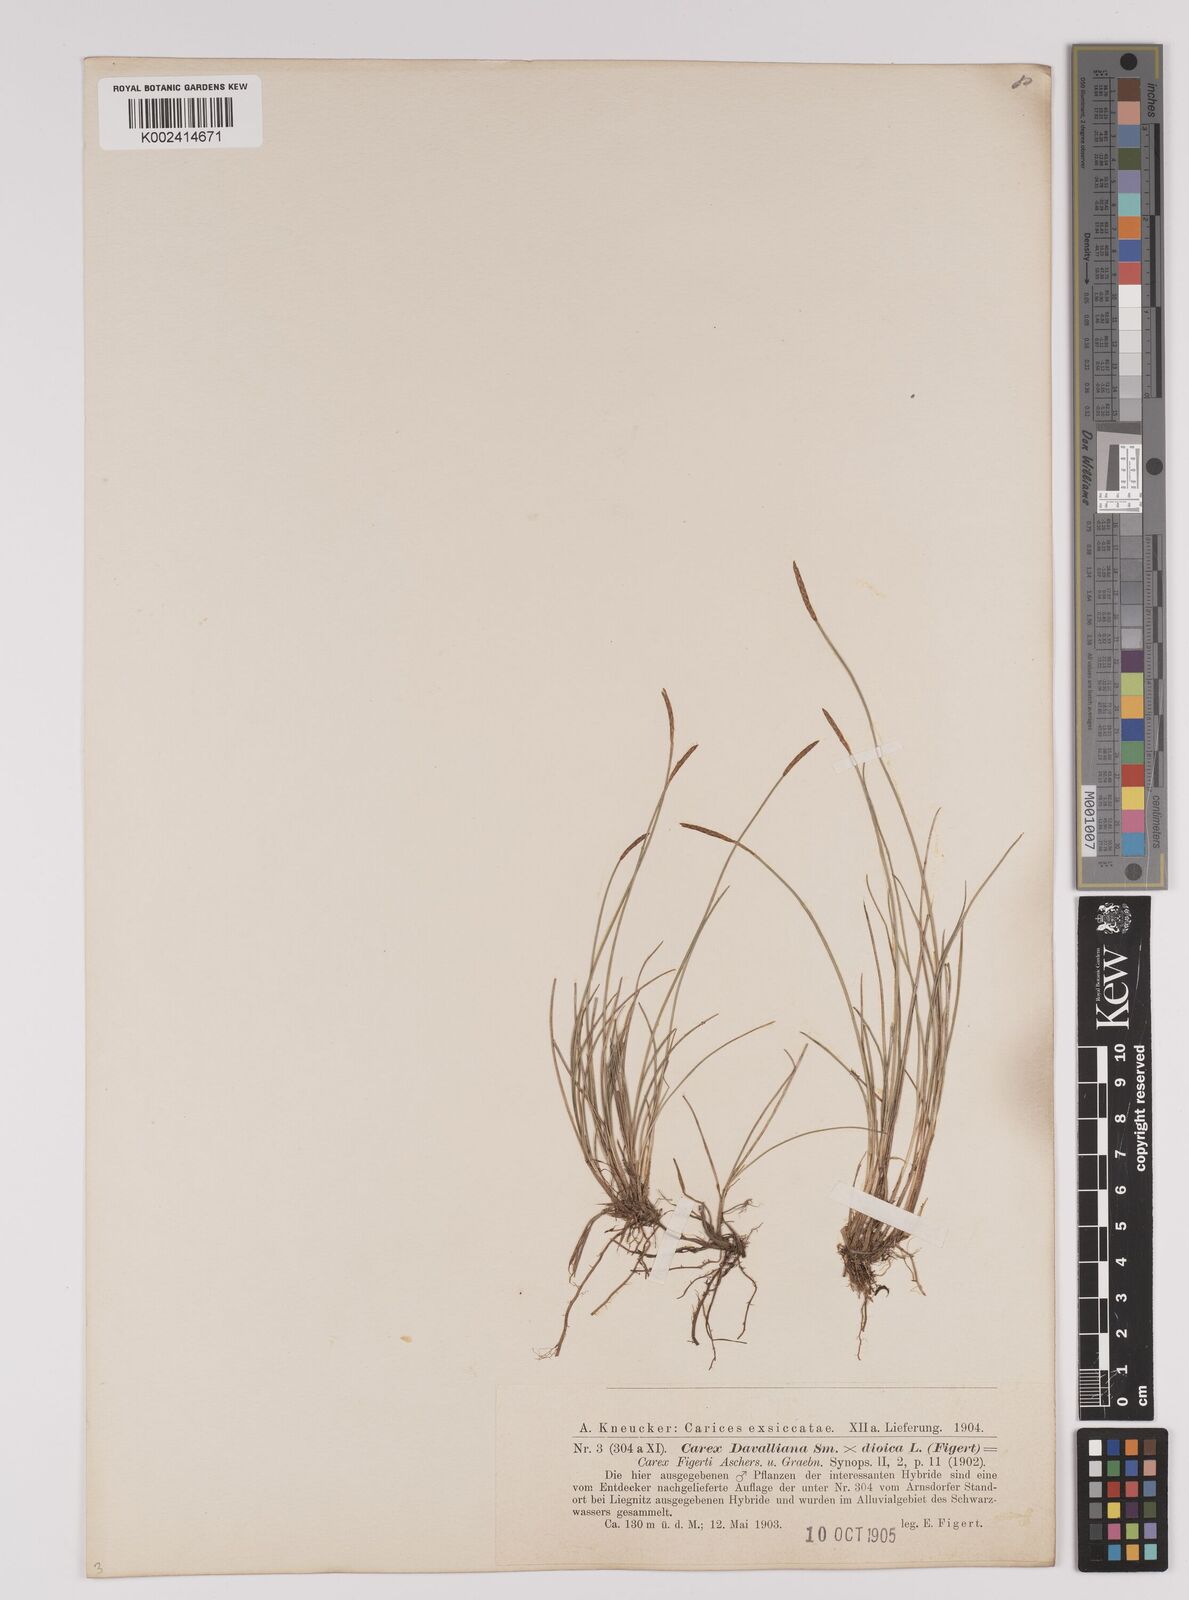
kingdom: Plantae
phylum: Tracheophyta
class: Liliopsida
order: Poales
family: Cyperaceae
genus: Carex
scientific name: Carex davalliana
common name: Davall's sedge
